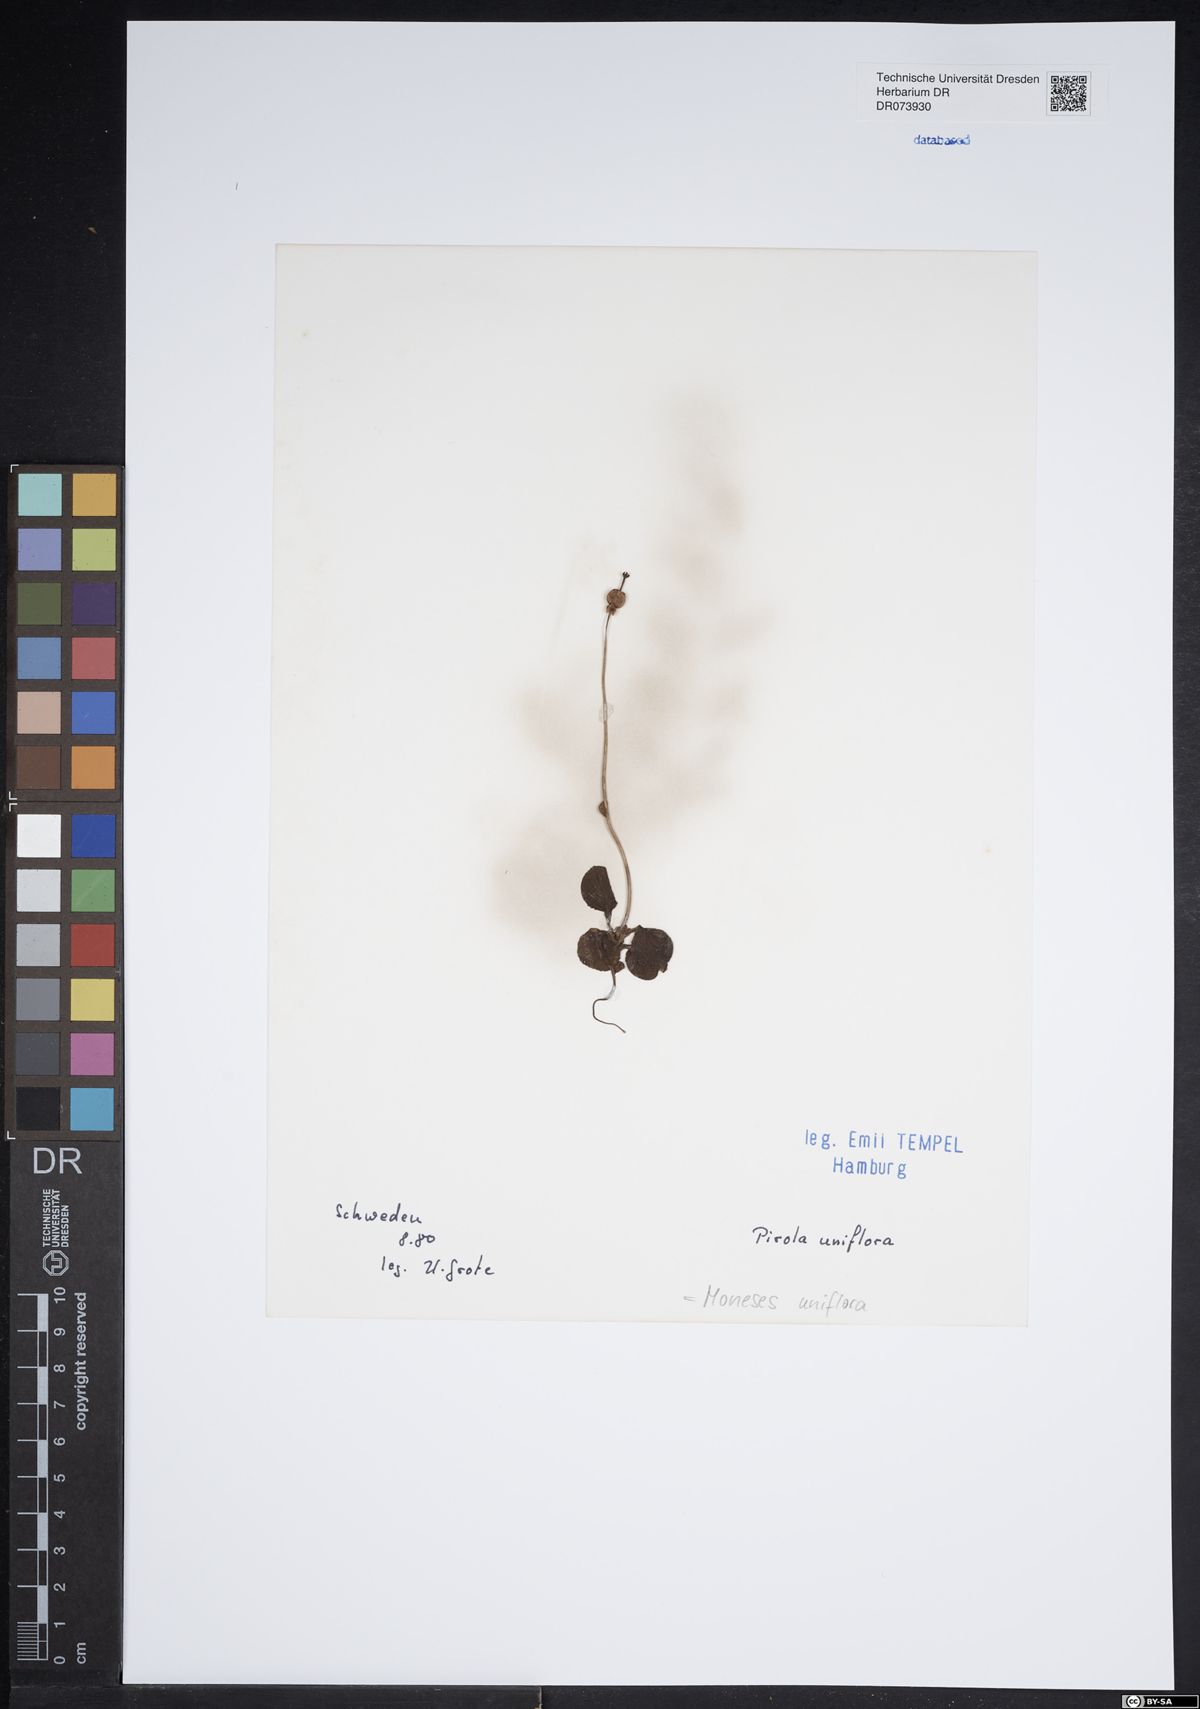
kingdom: Plantae
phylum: Tracheophyta
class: Magnoliopsida
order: Ericales
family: Ericaceae
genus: Moneses
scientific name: Moneses uniflora
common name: One-flowered wintergreen
